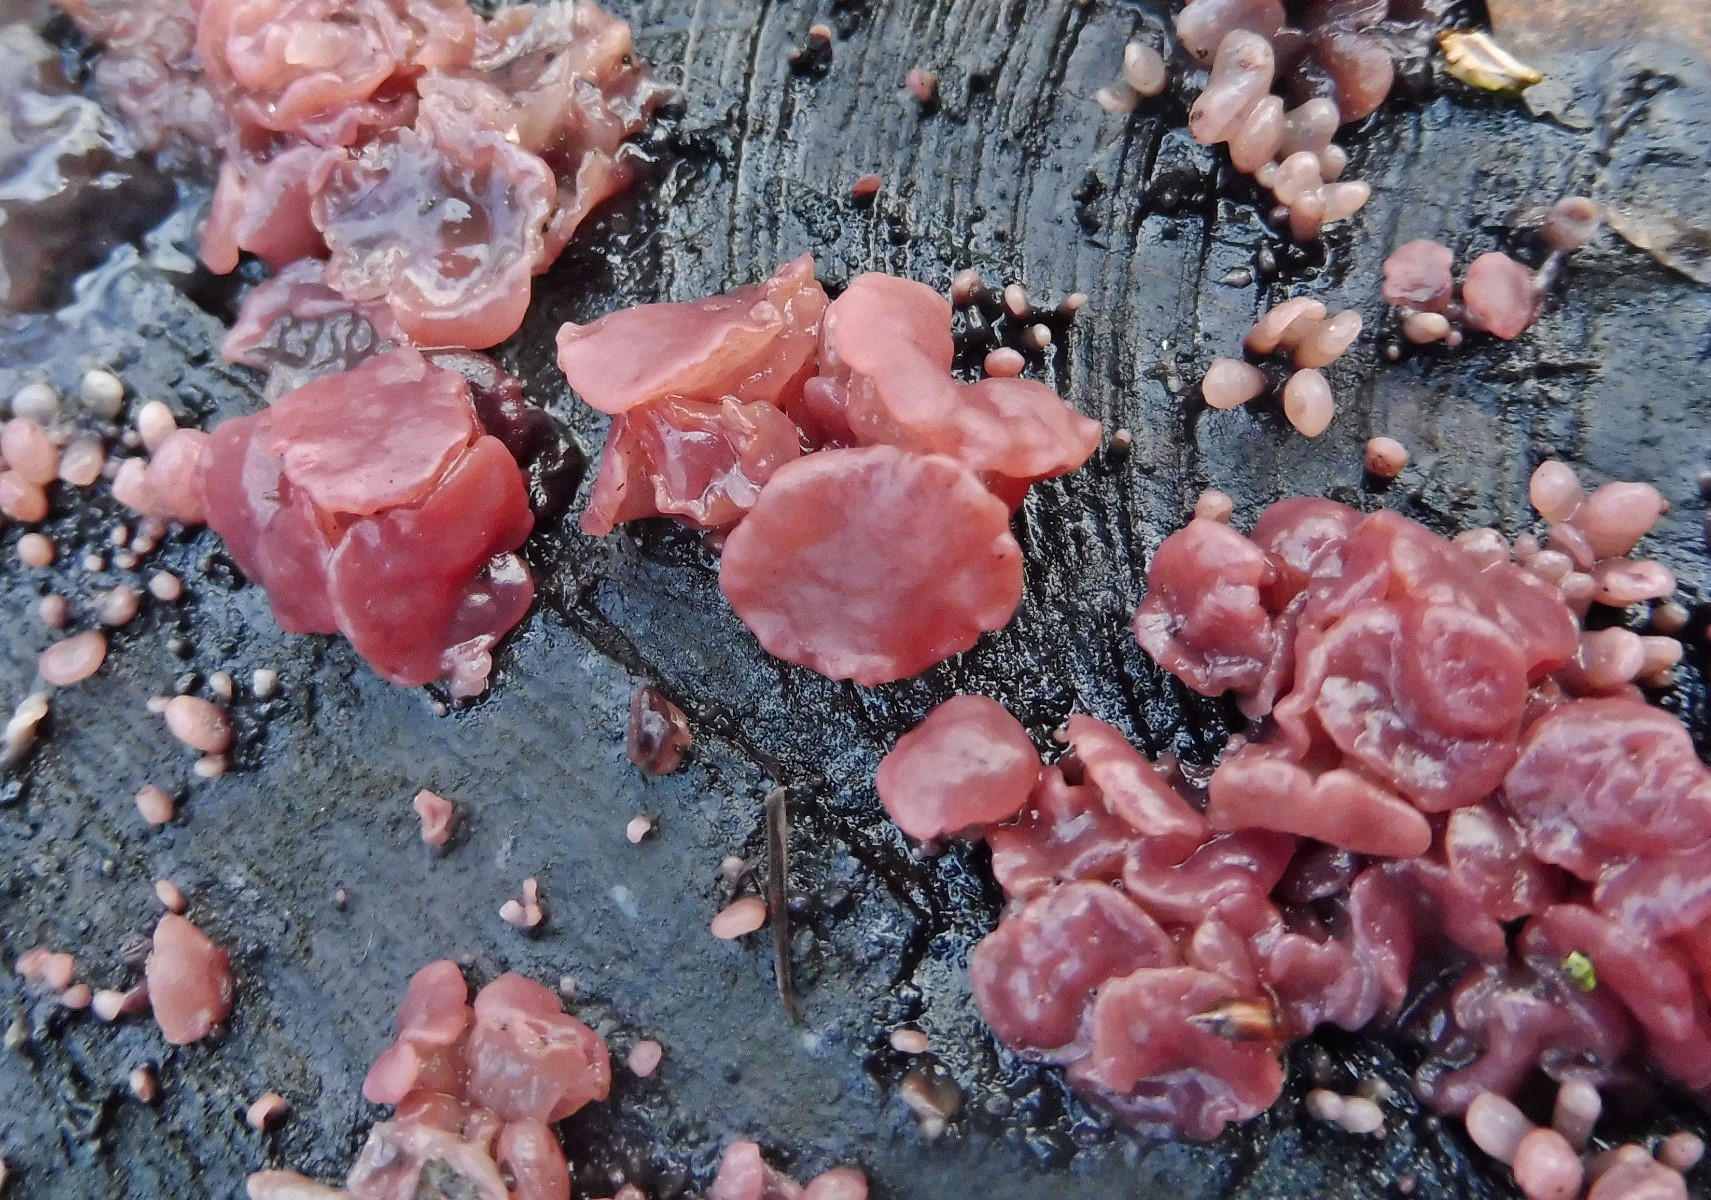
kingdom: Fungi
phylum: Ascomycota
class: Leotiomycetes
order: Helotiales
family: Gelatinodiscaceae
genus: Ascocoryne
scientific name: Ascocoryne sarcoides
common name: rødlilla sejskive
